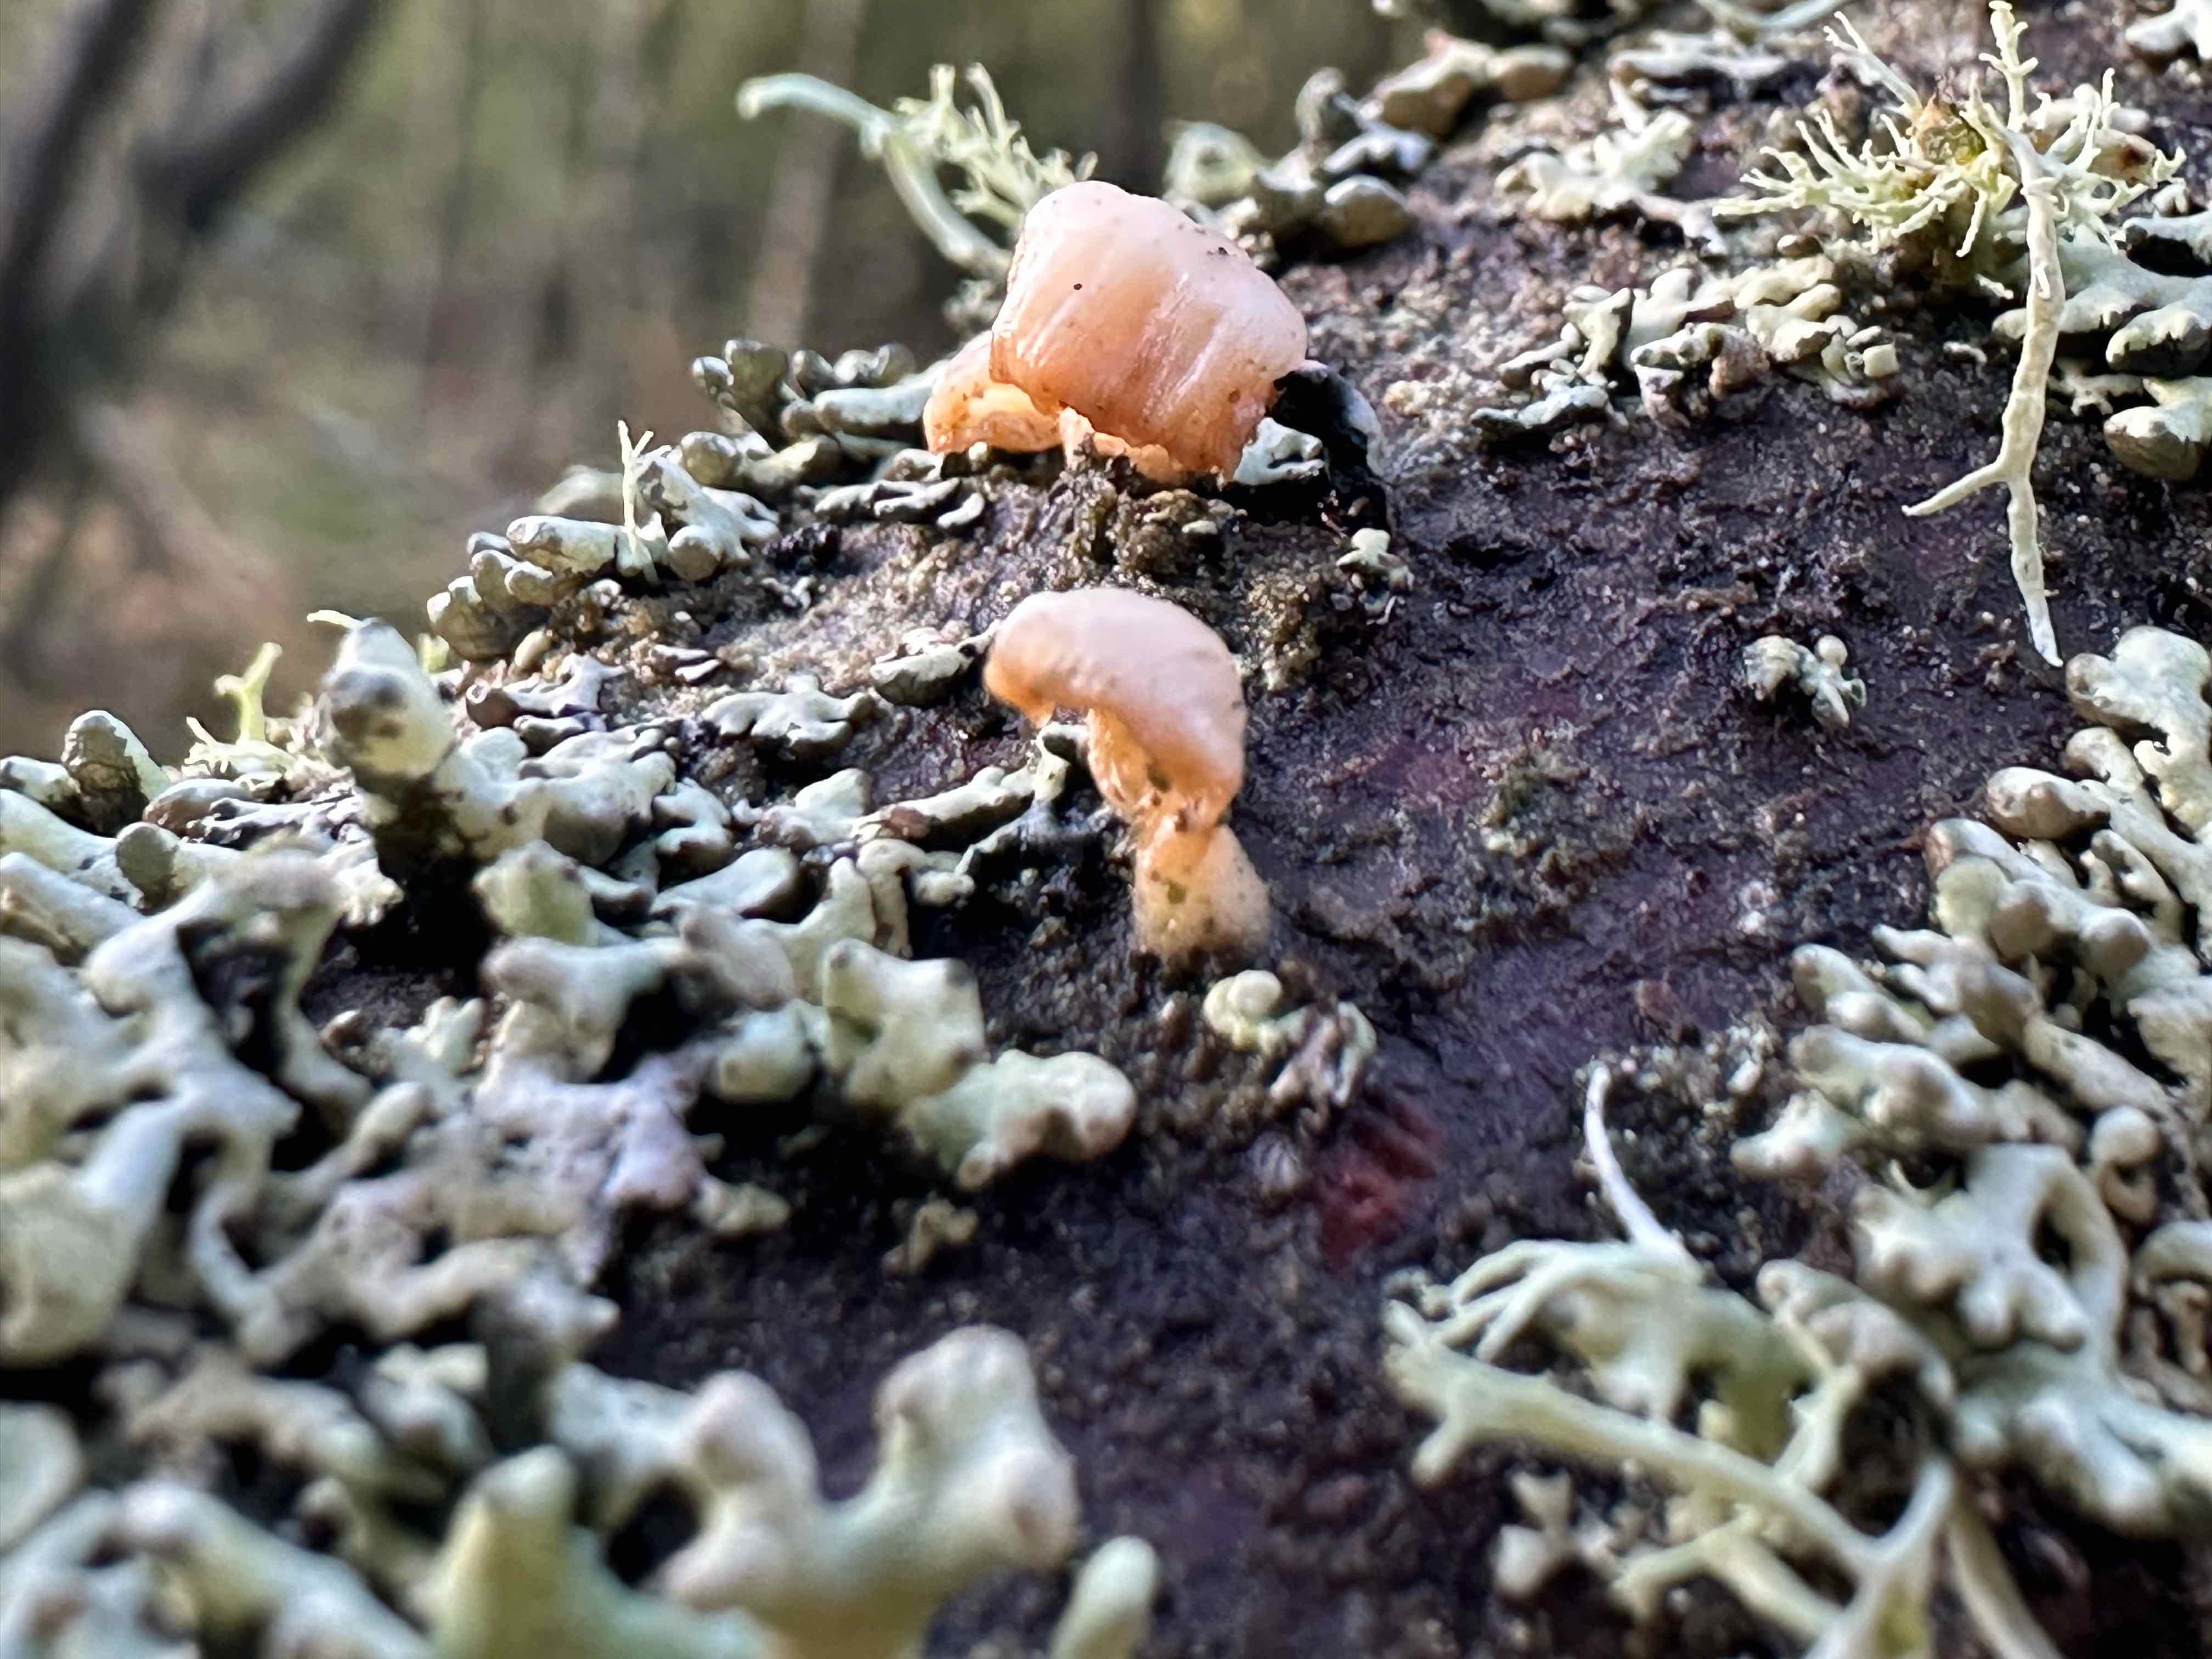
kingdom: Fungi
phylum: Basidiomycota
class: Agaricomycetes
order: Agaricales
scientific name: Agaricales
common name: champignonordenen
